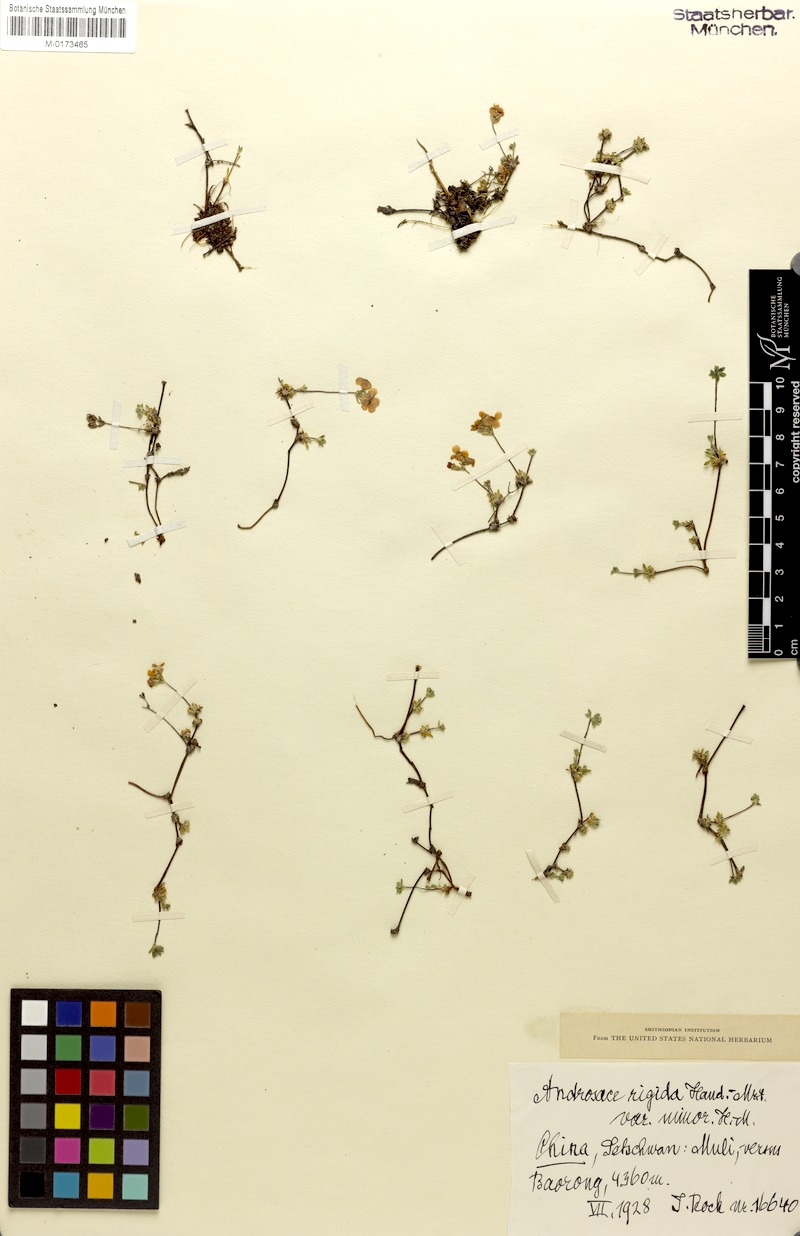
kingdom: Plantae
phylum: Tracheophyta
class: Magnoliopsida
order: Ericales
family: Primulaceae
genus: Androsace
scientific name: Androsace minor
